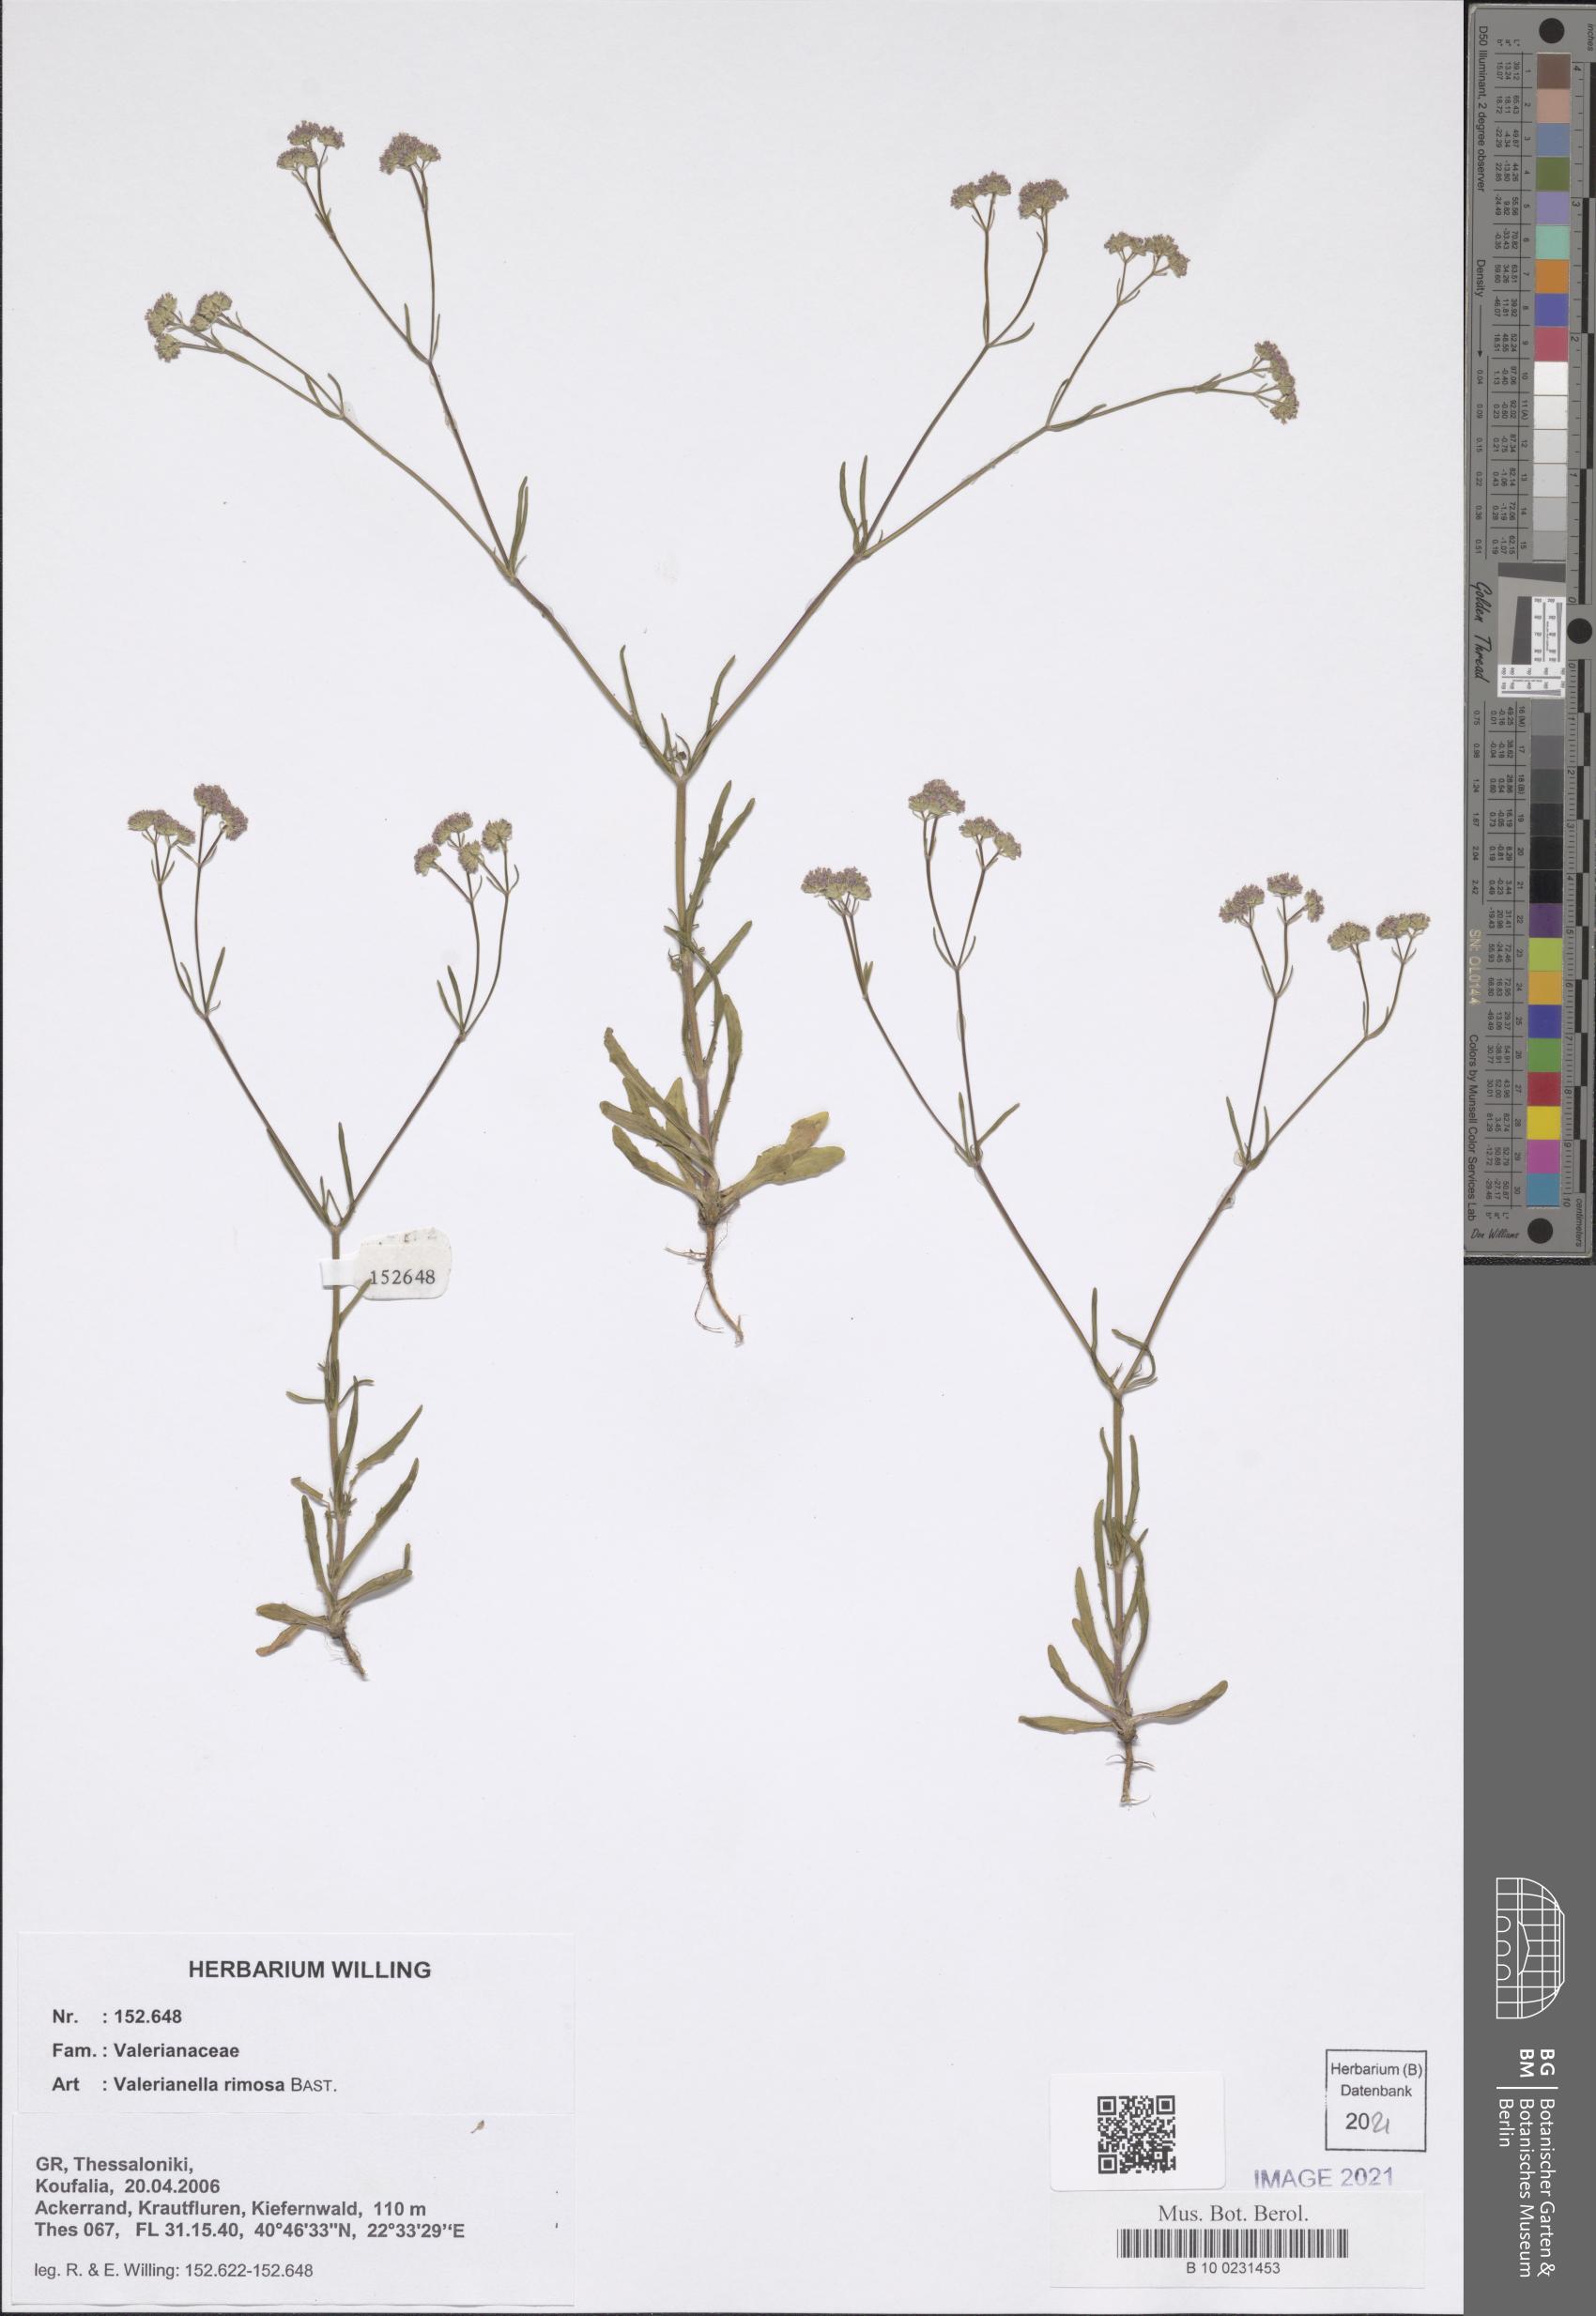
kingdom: Plantae
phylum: Tracheophyta
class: Magnoliopsida
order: Dipsacales
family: Caprifoliaceae
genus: Valerianella
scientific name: Valerianella rimosa
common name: Broad-fruited cornsalad
